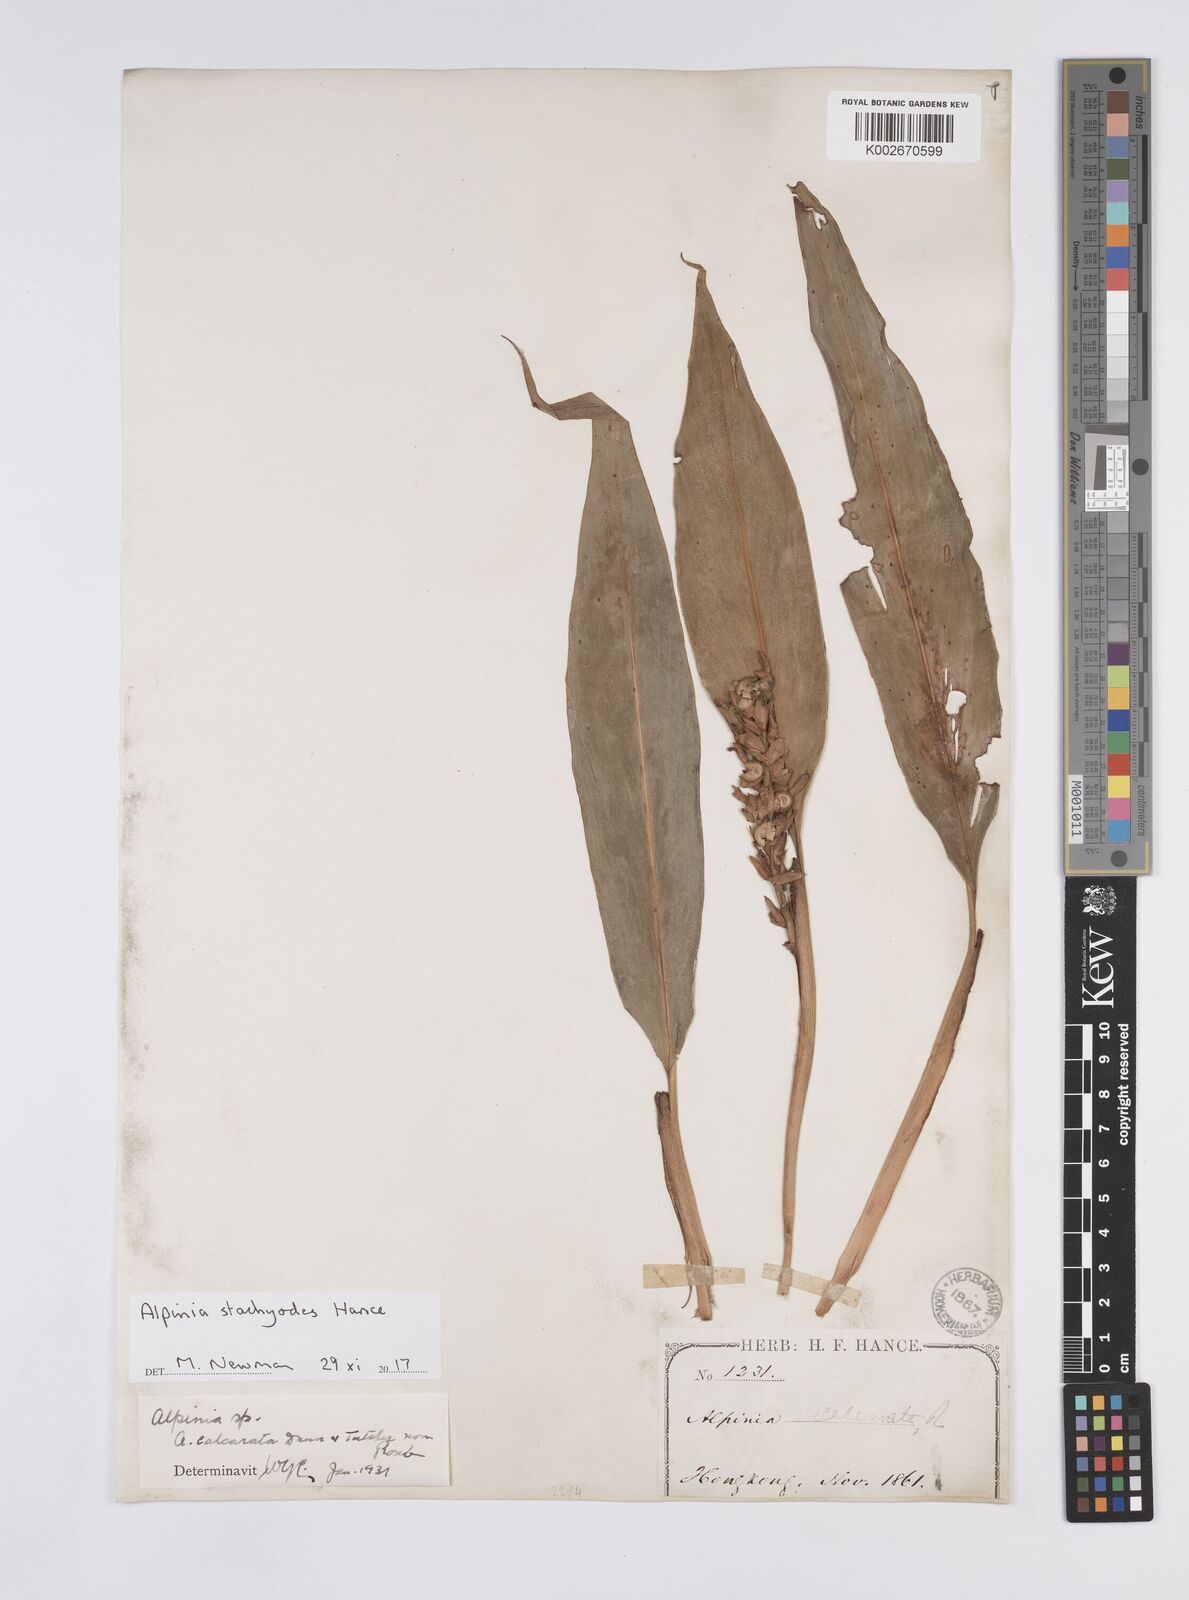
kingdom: Plantae
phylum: Tracheophyta
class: Liliopsida
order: Zingiberales
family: Zingiberaceae
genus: Alpinia
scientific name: Alpinia stachyodes
